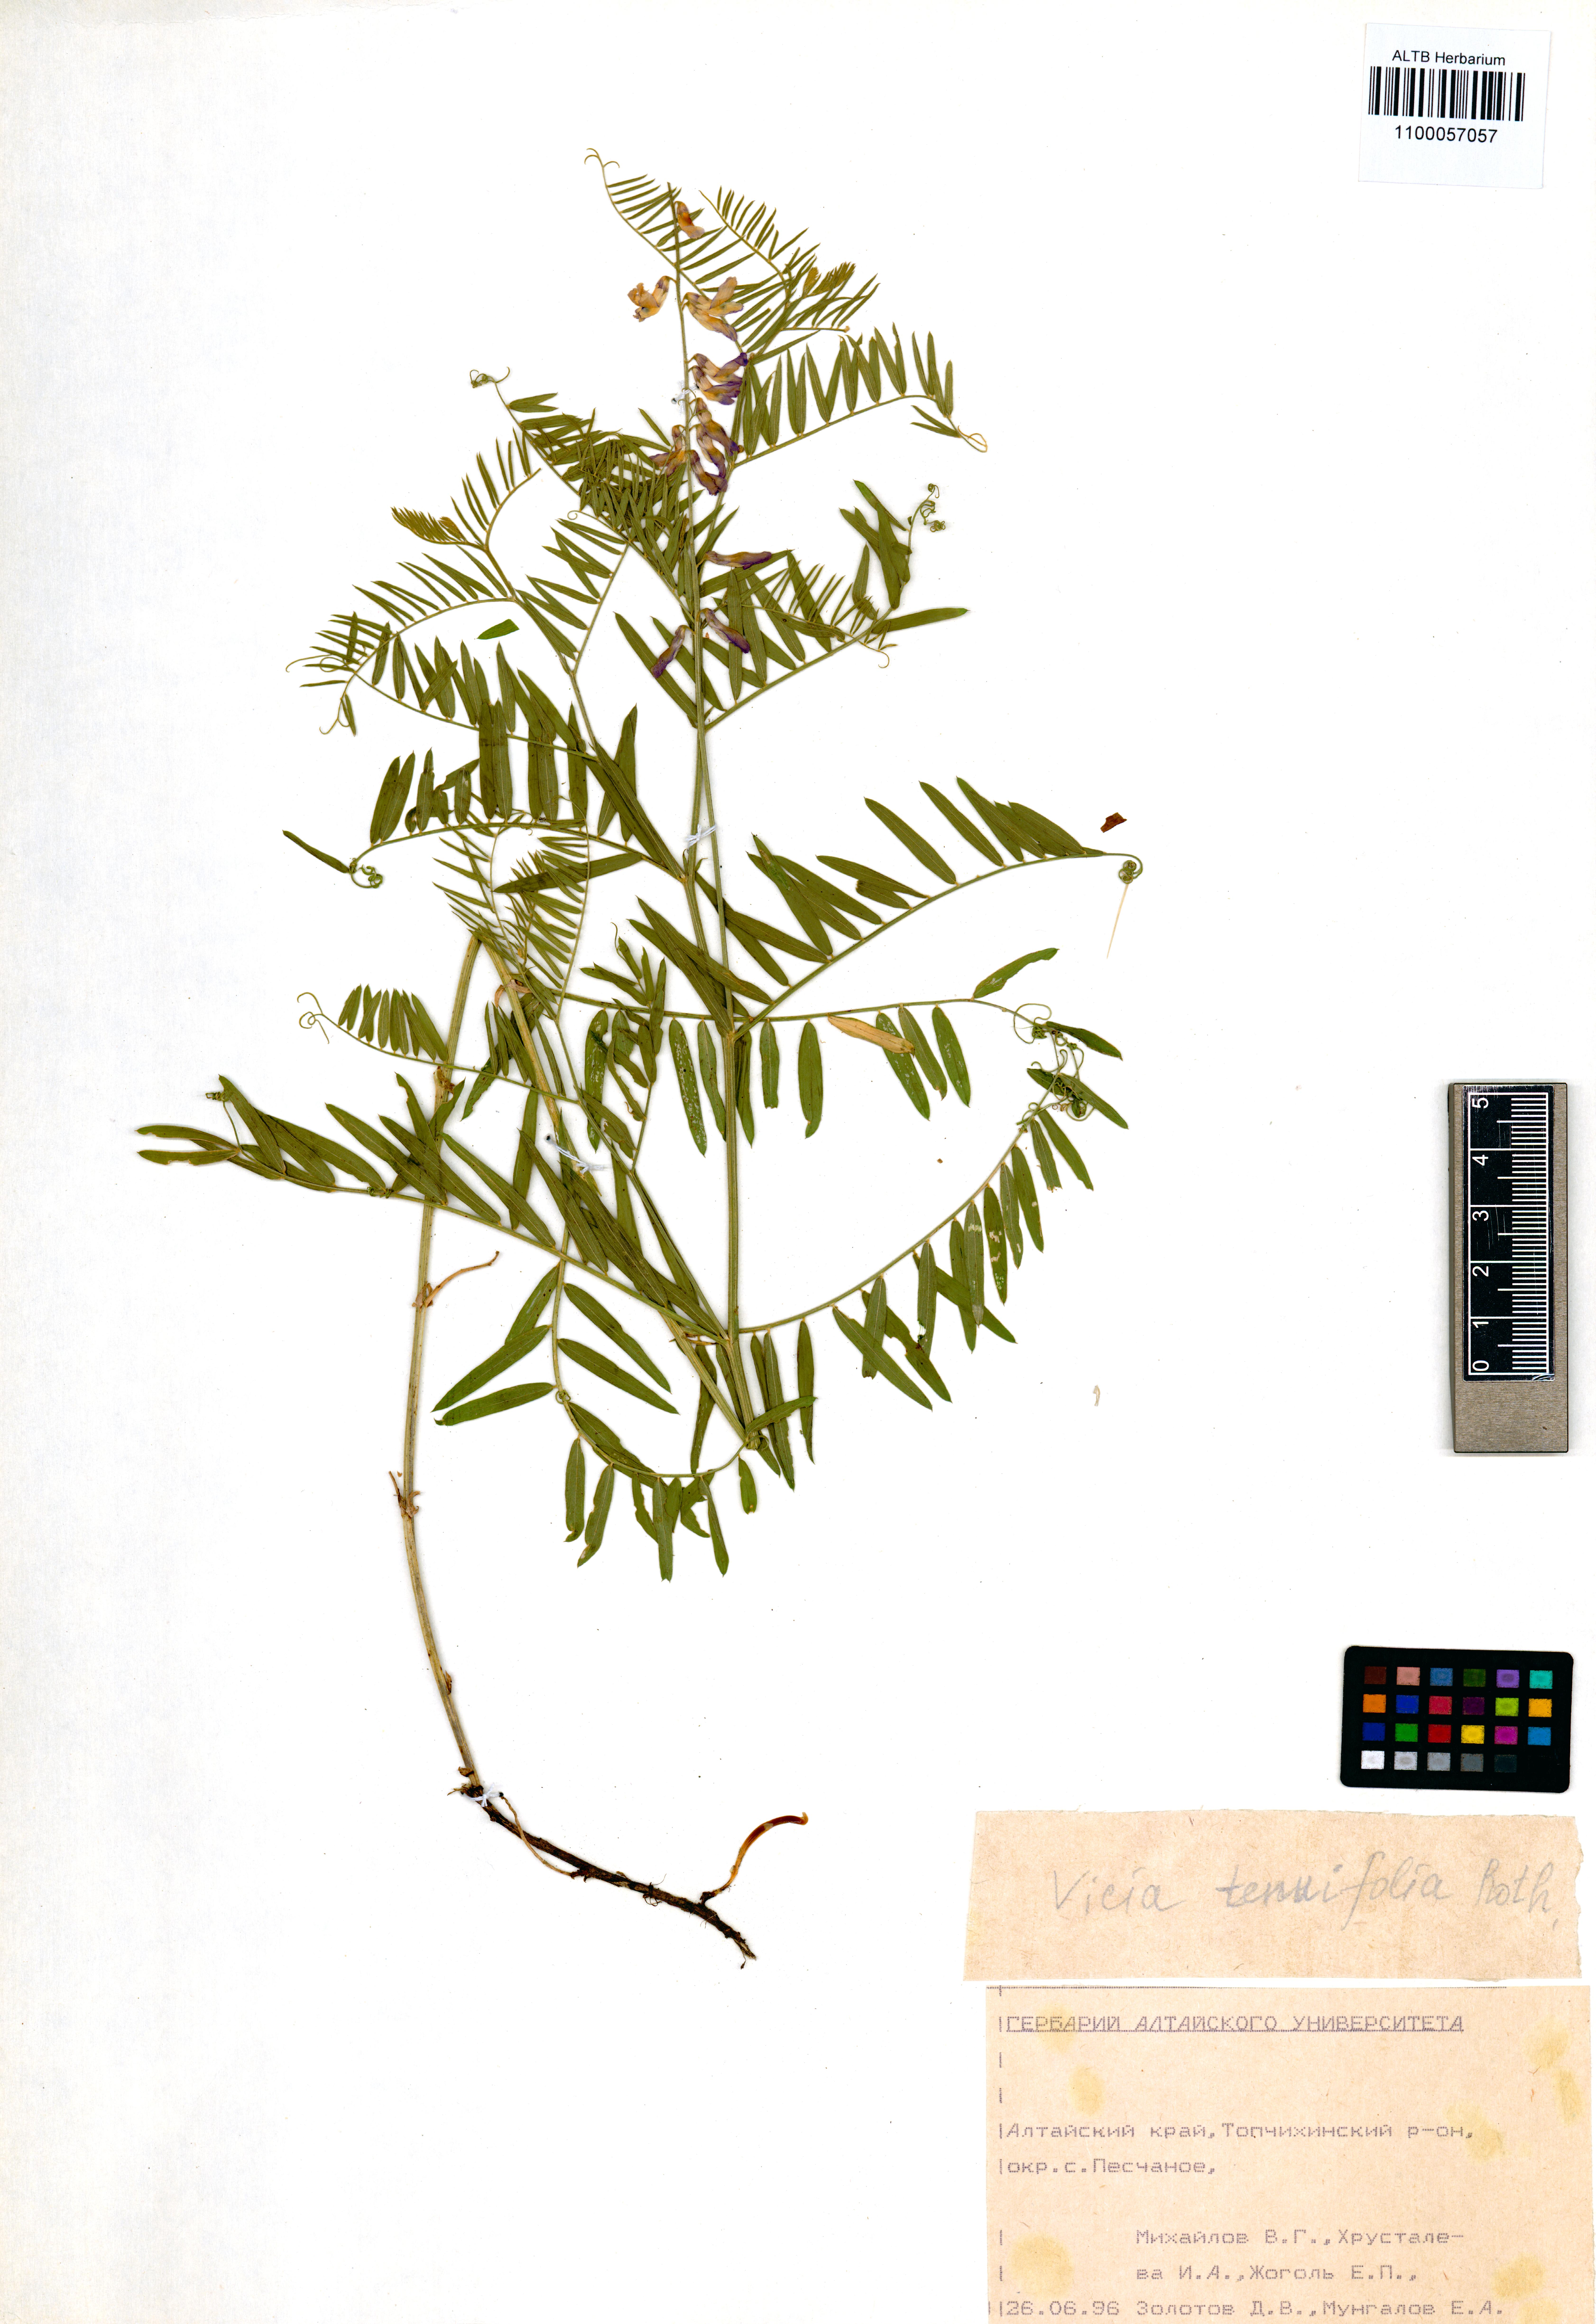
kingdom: Plantae
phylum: Tracheophyta
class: Magnoliopsida
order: Fabales
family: Fabaceae
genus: Vicia
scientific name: Vicia tenuifolia
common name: Fine-leaved vetch
